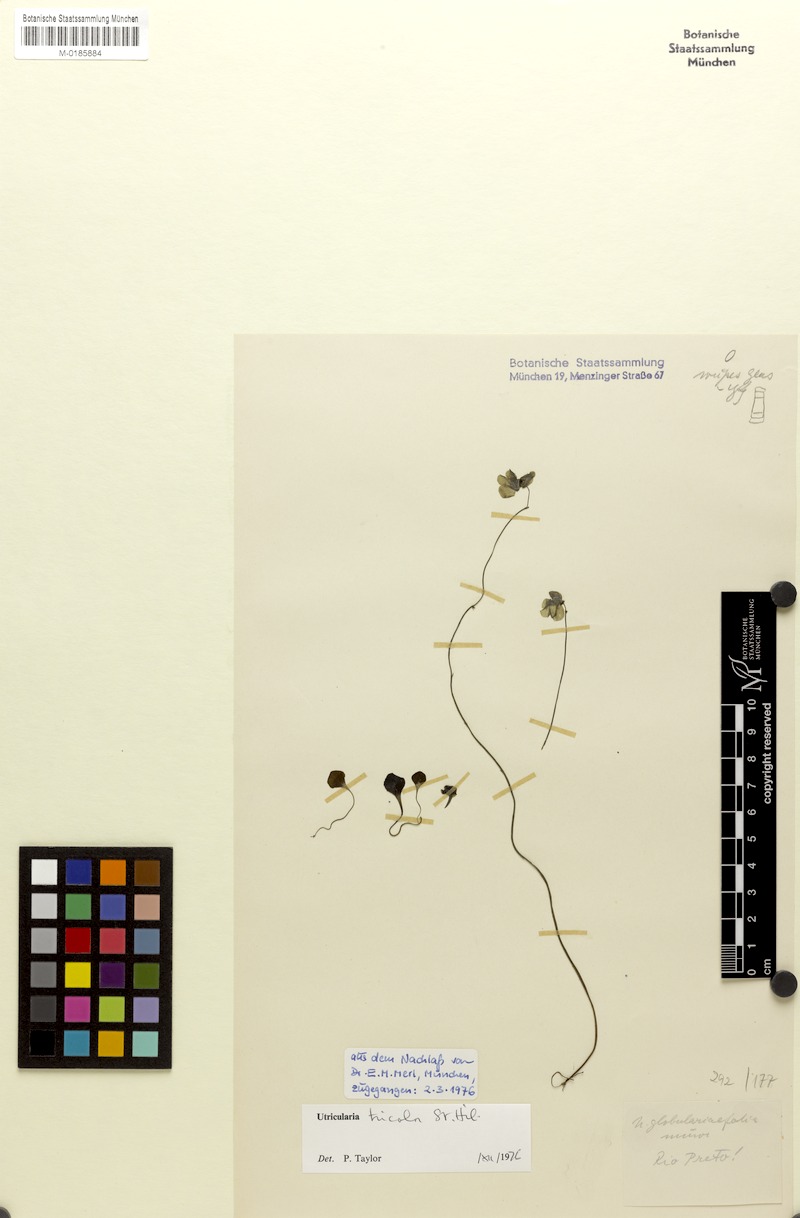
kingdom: Plantae
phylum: Tracheophyta
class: Magnoliopsida
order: Lamiales
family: Lentibulariaceae
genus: Utricularia
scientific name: Utricularia tricolor
